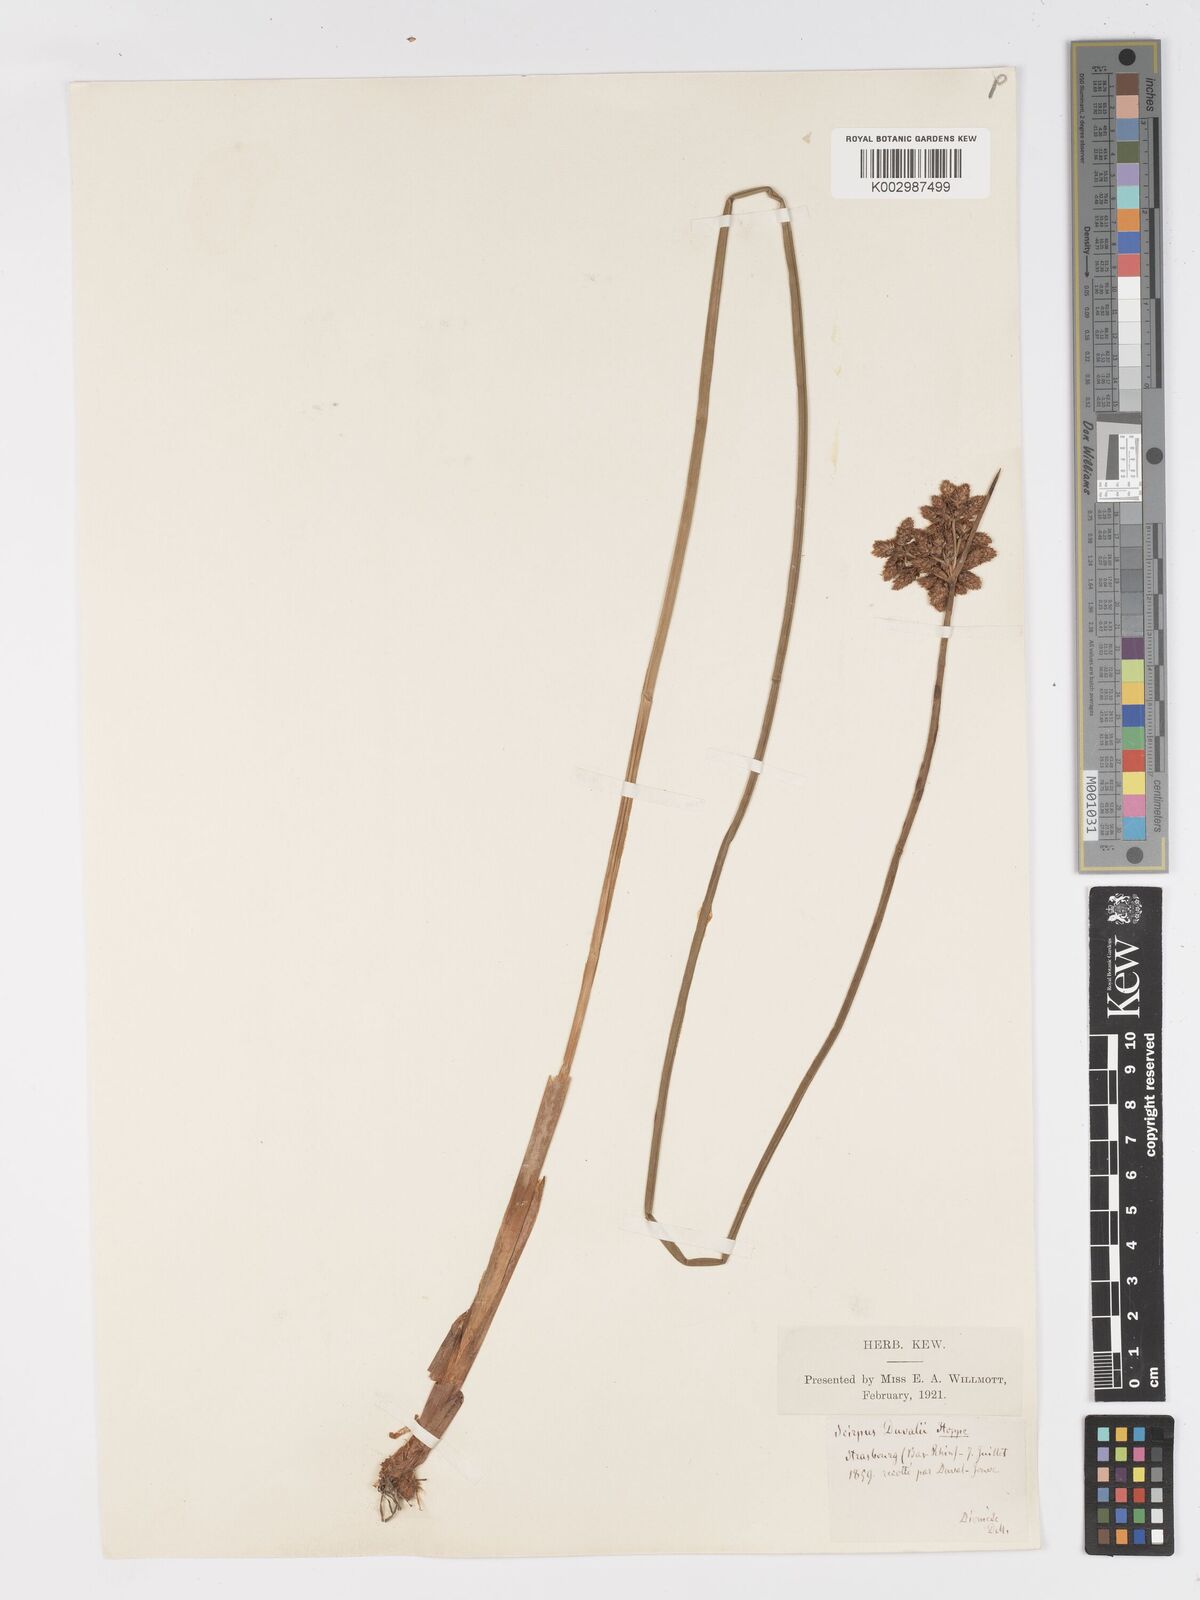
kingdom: Plantae
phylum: Tracheophyta
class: Liliopsida
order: Poales
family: Cyperaceae
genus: Schoenoplectus
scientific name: Schoenoplectus lacustris
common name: Common club-rush
